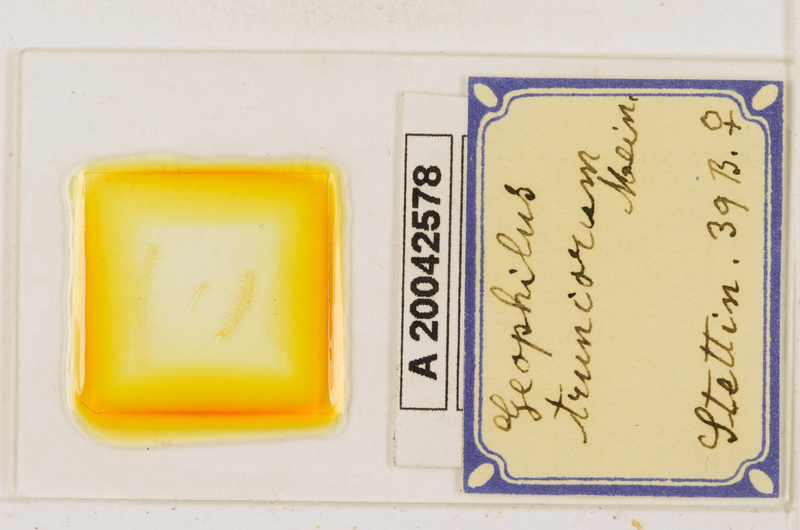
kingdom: Animalia
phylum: Arthropoda
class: Chilopoda
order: Geophilomorpha
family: Geophilidae
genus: Geophilus
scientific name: Geophilus truncorum
